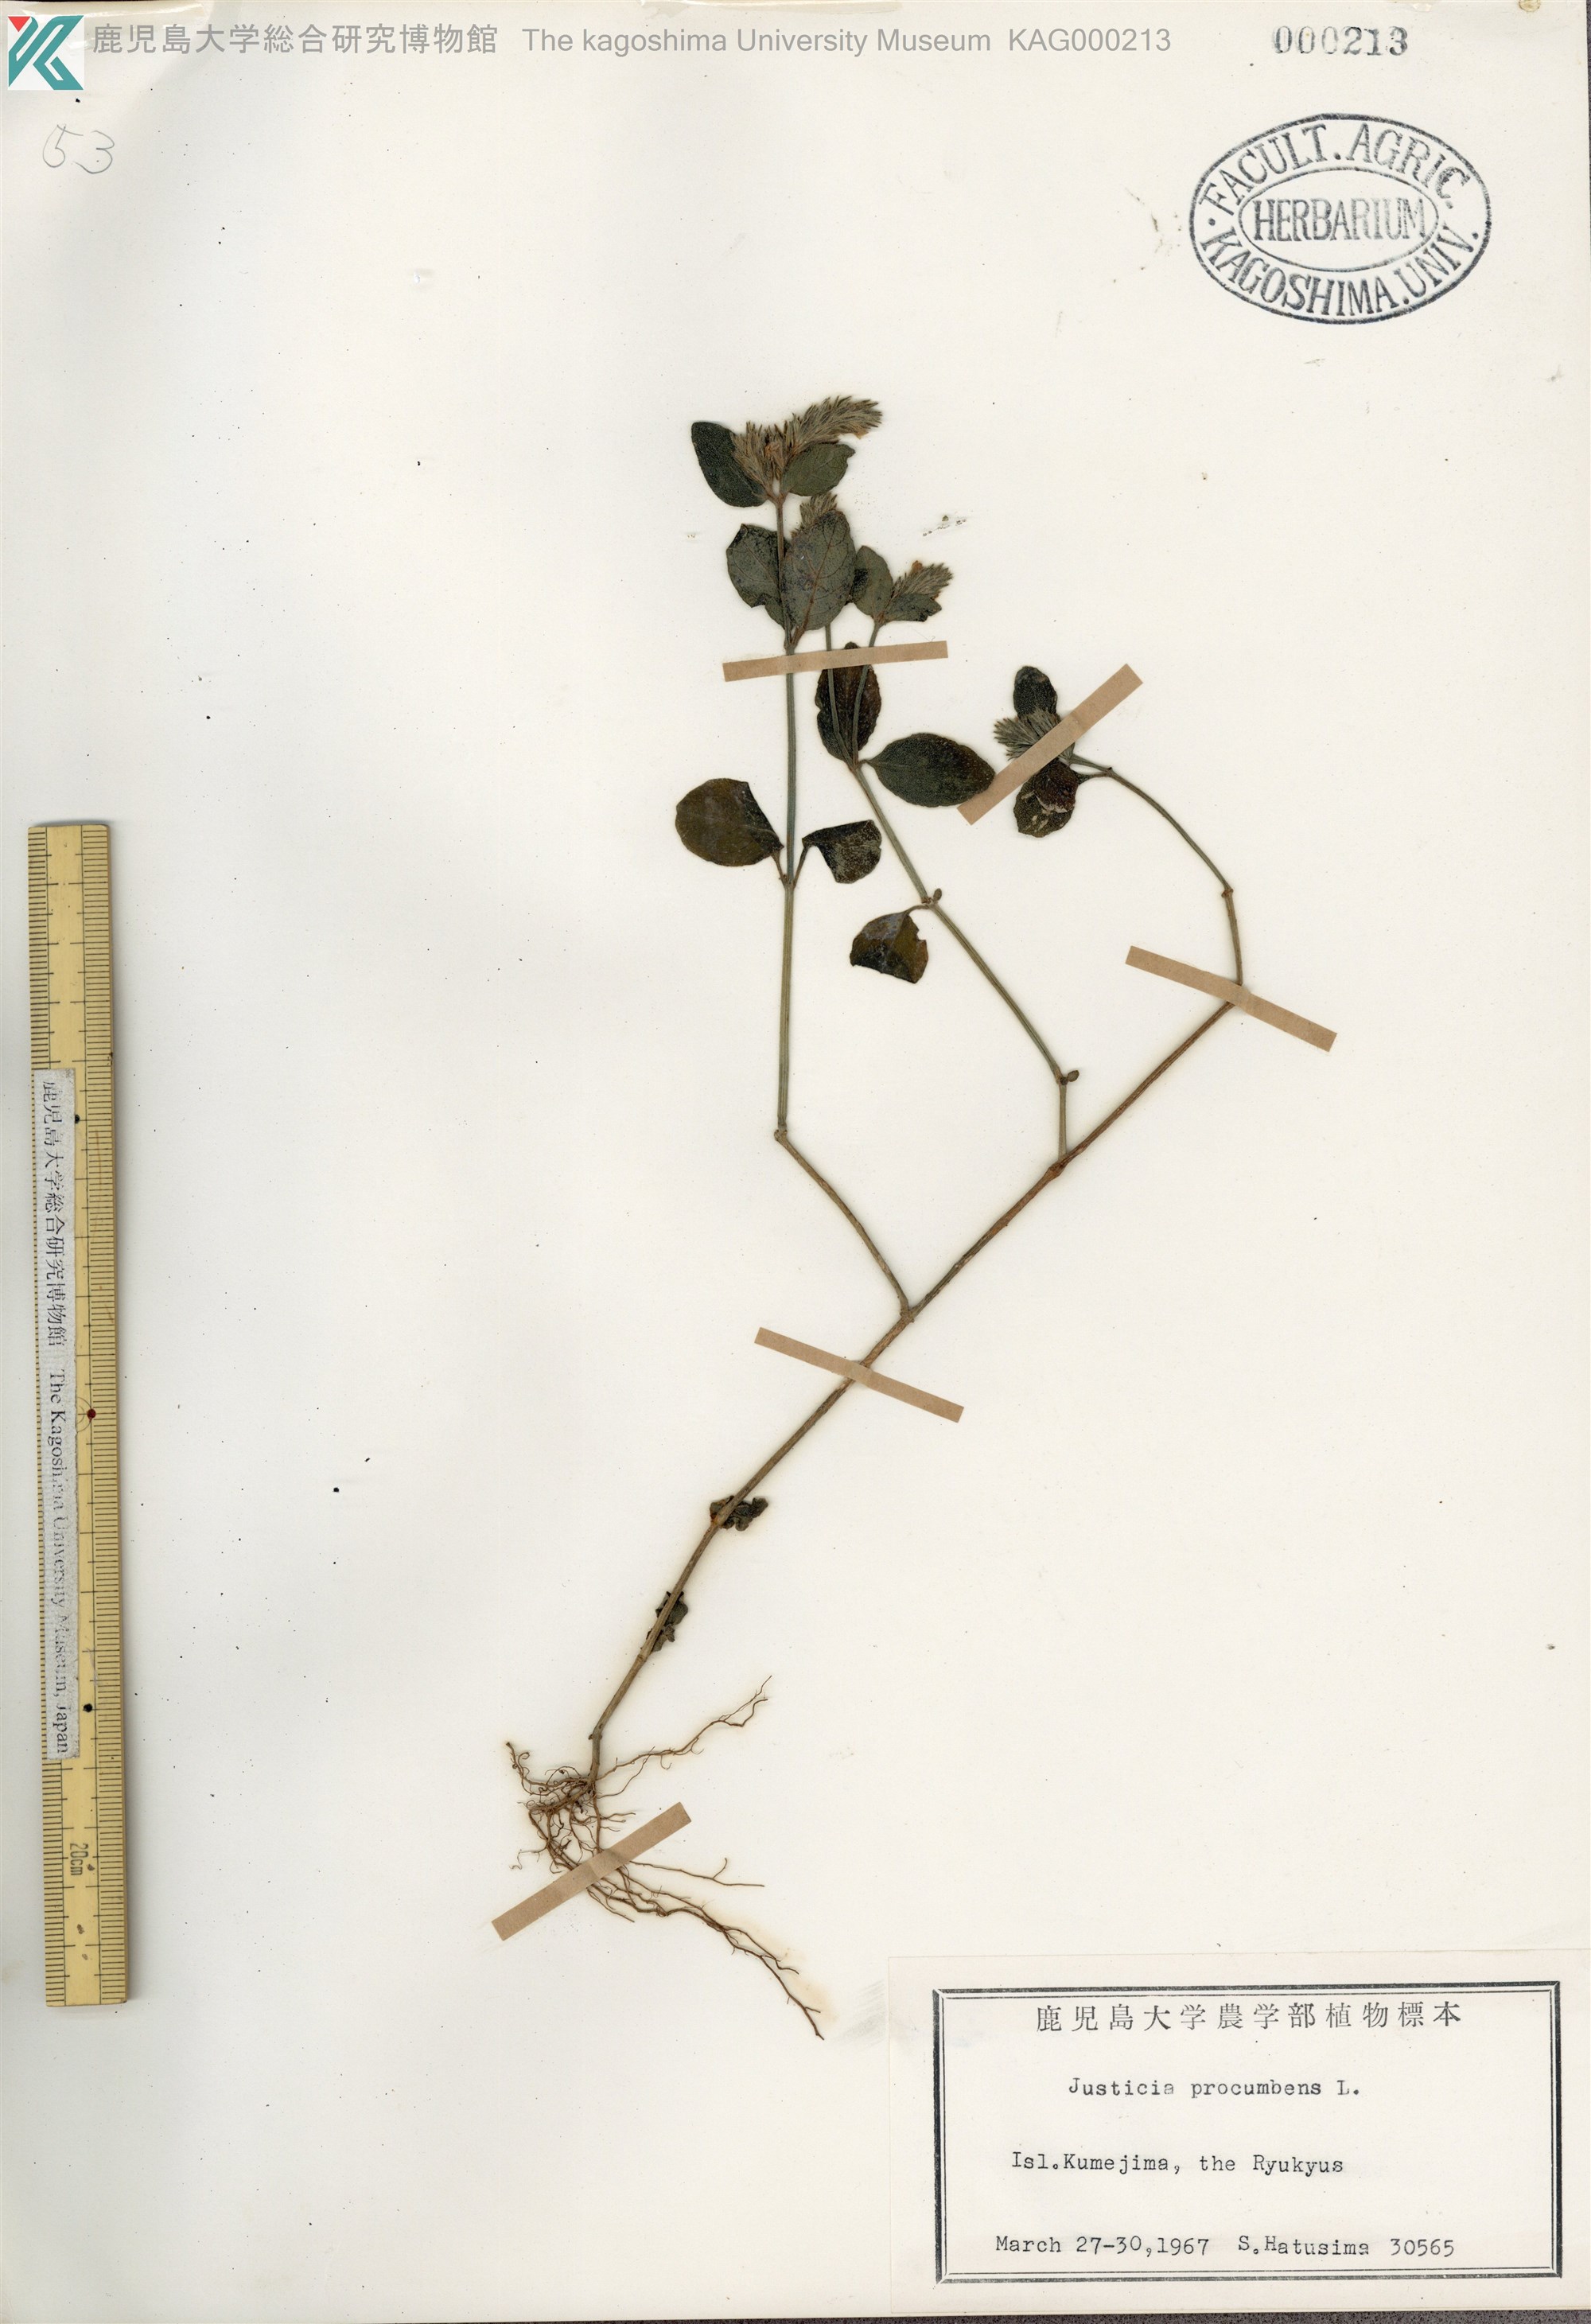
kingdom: Plantae
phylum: Tracheophyta
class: Magnoliopsida
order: Lamiales
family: Acanthaceae
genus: Rostellularia
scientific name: Rostellularia procumbens
